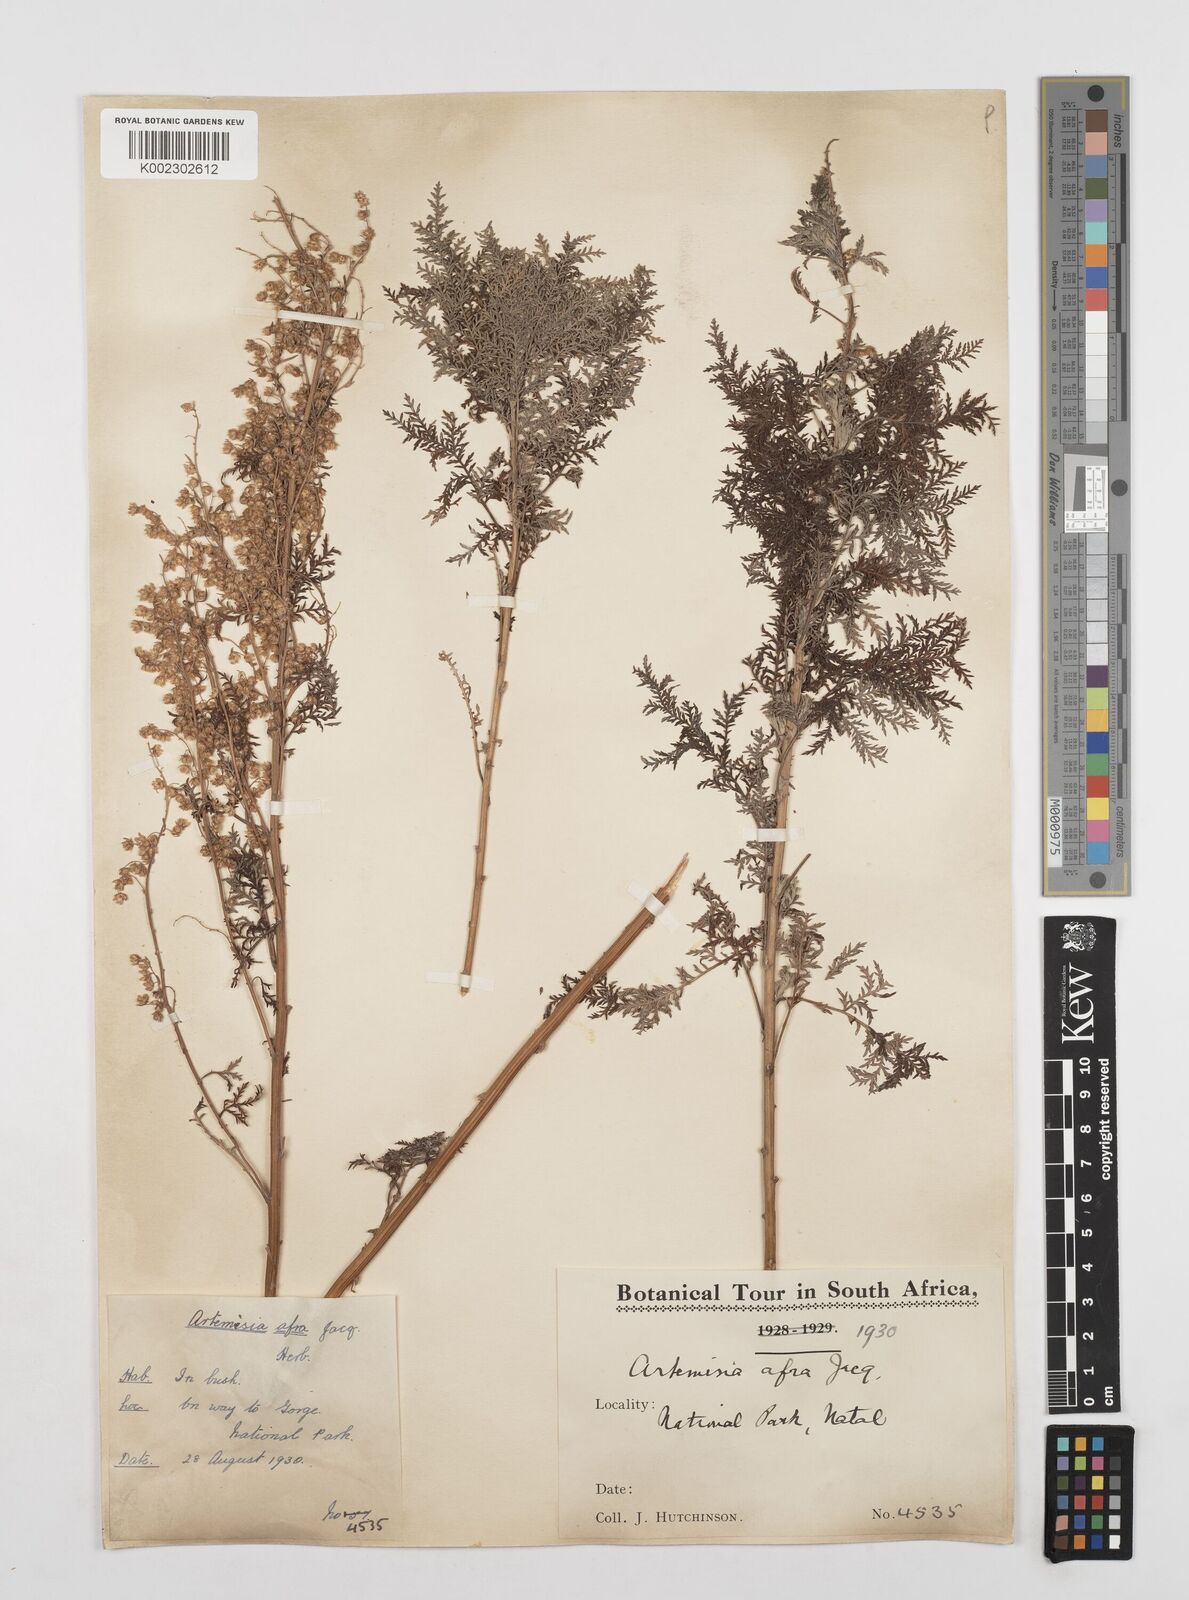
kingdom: Plantae
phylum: Tracheophyta
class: Magnoliopsida
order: Asterales
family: Asteraceae
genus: Artemisia
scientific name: Artemisia afra
